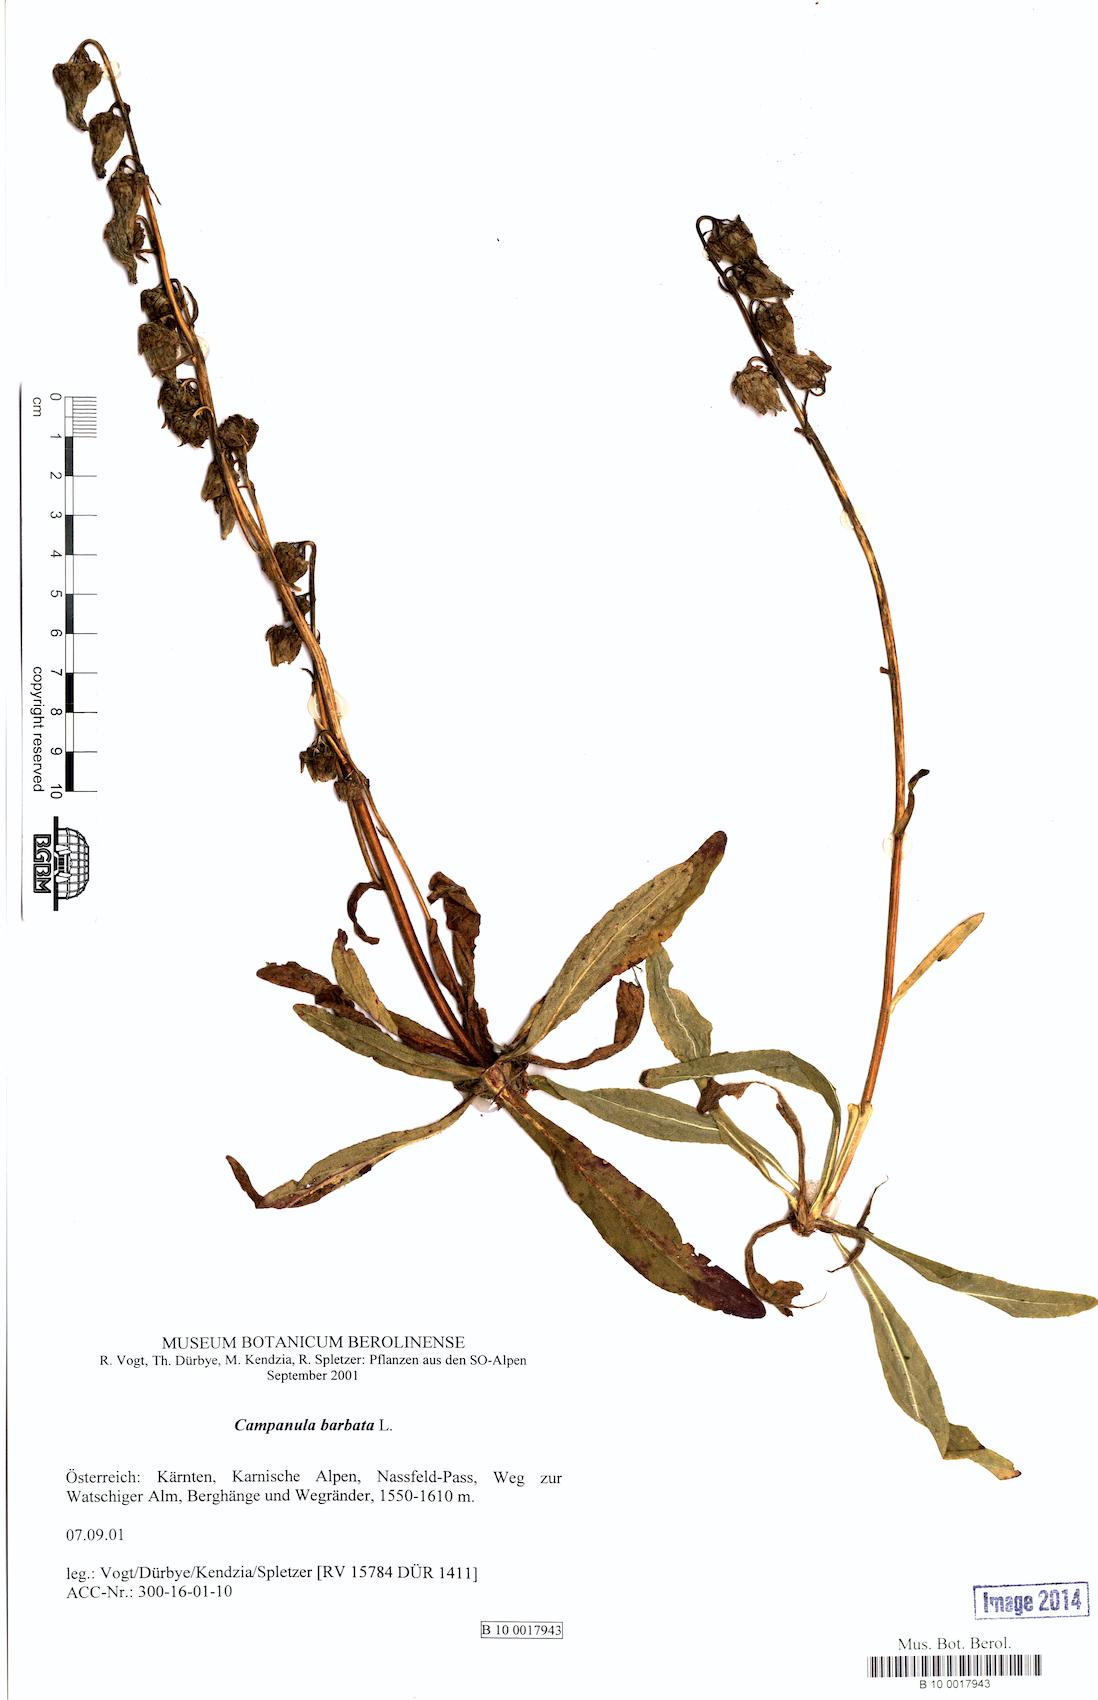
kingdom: Plantae
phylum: Tracheophyta
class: Magnoliopsida
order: Asterales
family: Campanulaceae
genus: Campanula
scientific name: Campanula barbata
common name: Bearded bellflower
